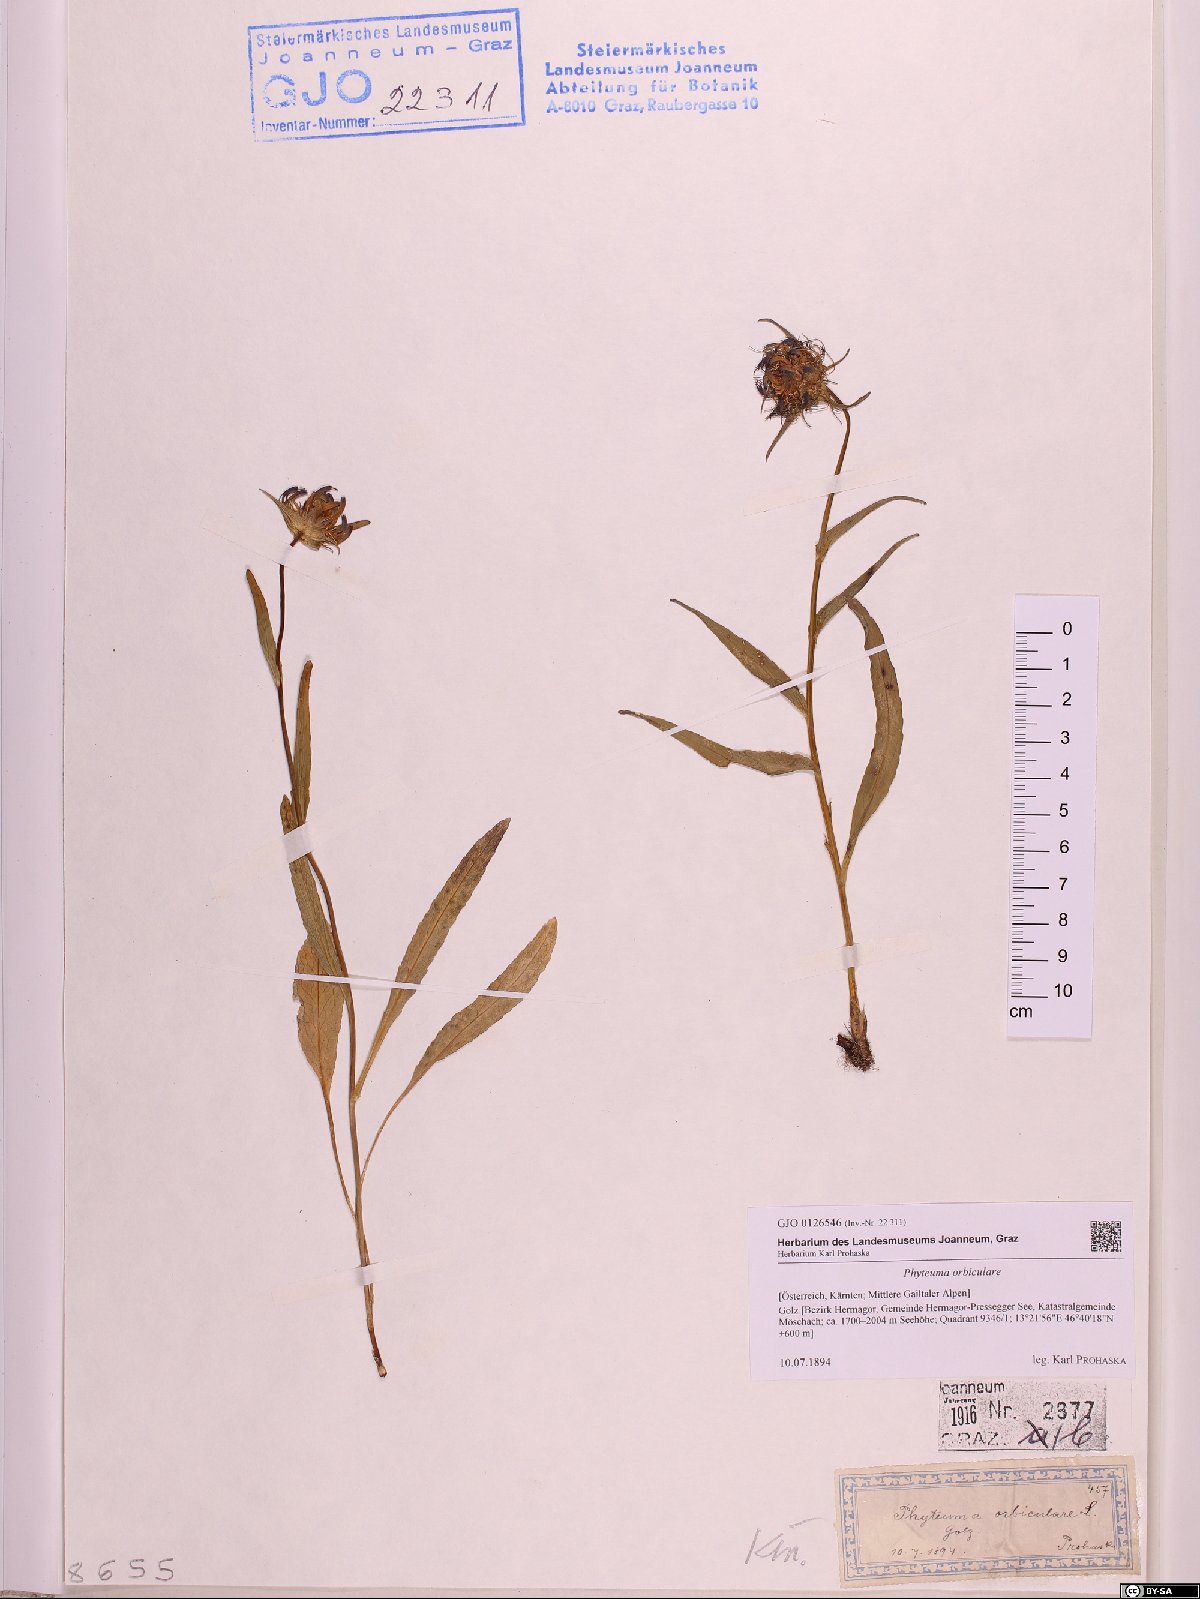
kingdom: Plantae
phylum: Tracheophyta
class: Magnoliopsida
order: Asterales
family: Campanulaceae
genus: Phyteuma
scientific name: Phyteuma orbiculare
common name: Round-headed rampion
